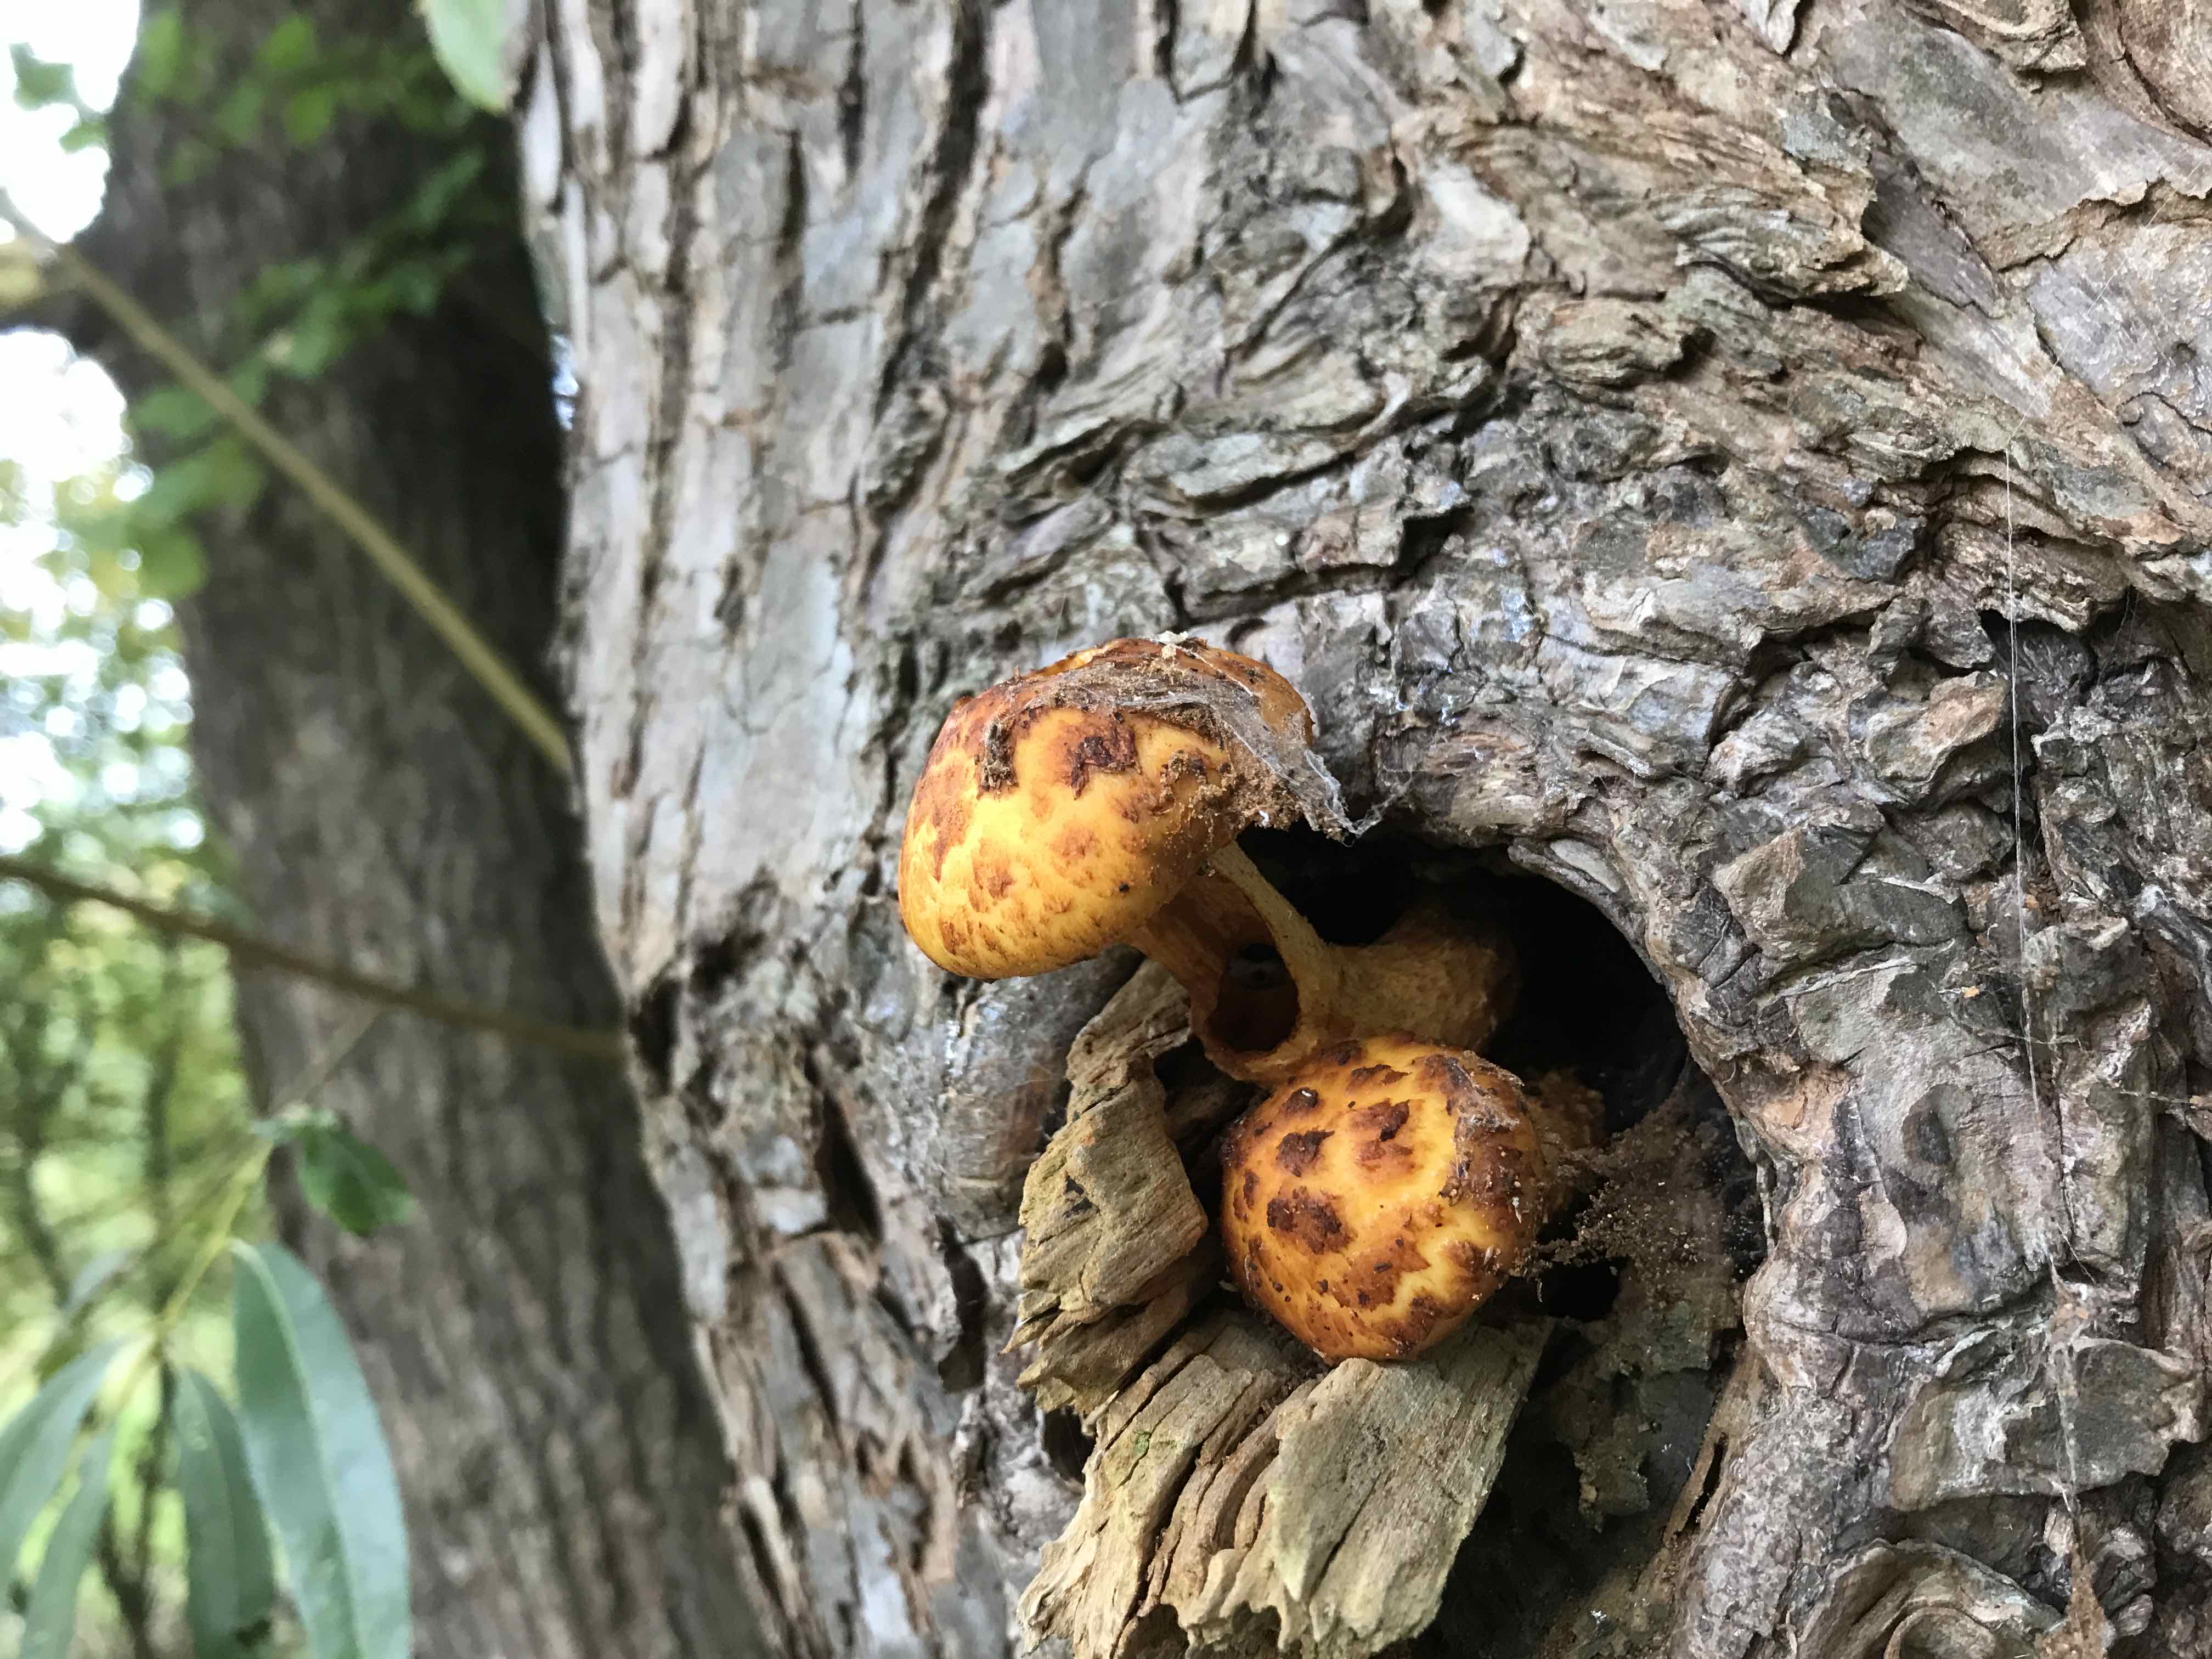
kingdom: Fungi
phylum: Basidiomycota
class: Agaricomycetes
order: Agaricales
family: Strophariaceae
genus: Pholiota
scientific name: Pholiota aurivella
